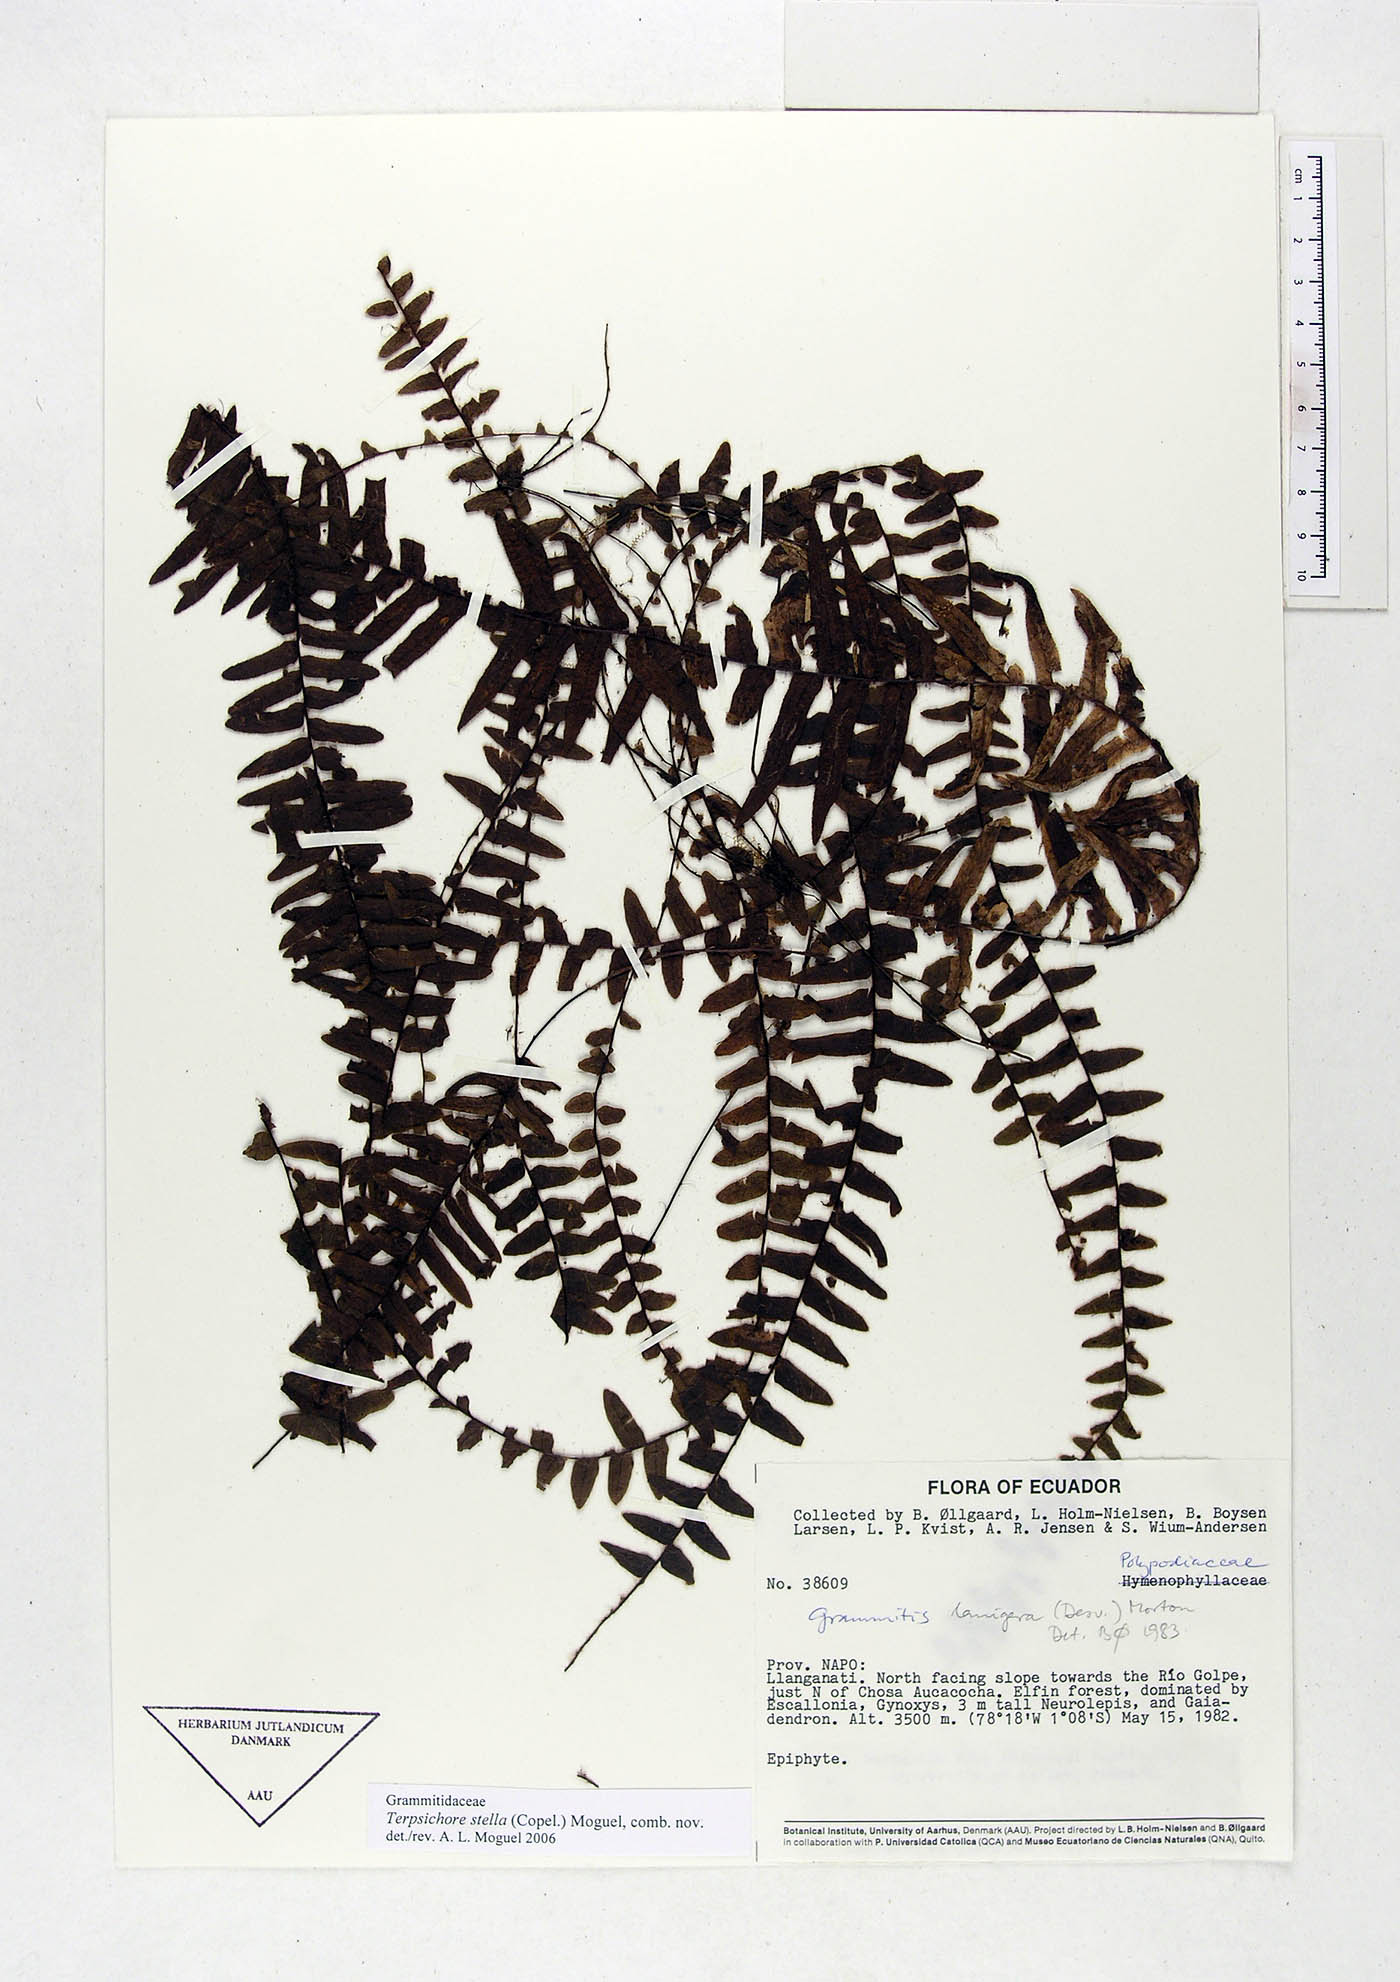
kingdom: Plantae
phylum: Tracheophyta
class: Polypodiopsida
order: Polypodiales
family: Polypodiaceae
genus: Alansmia
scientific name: Alansmia stella
